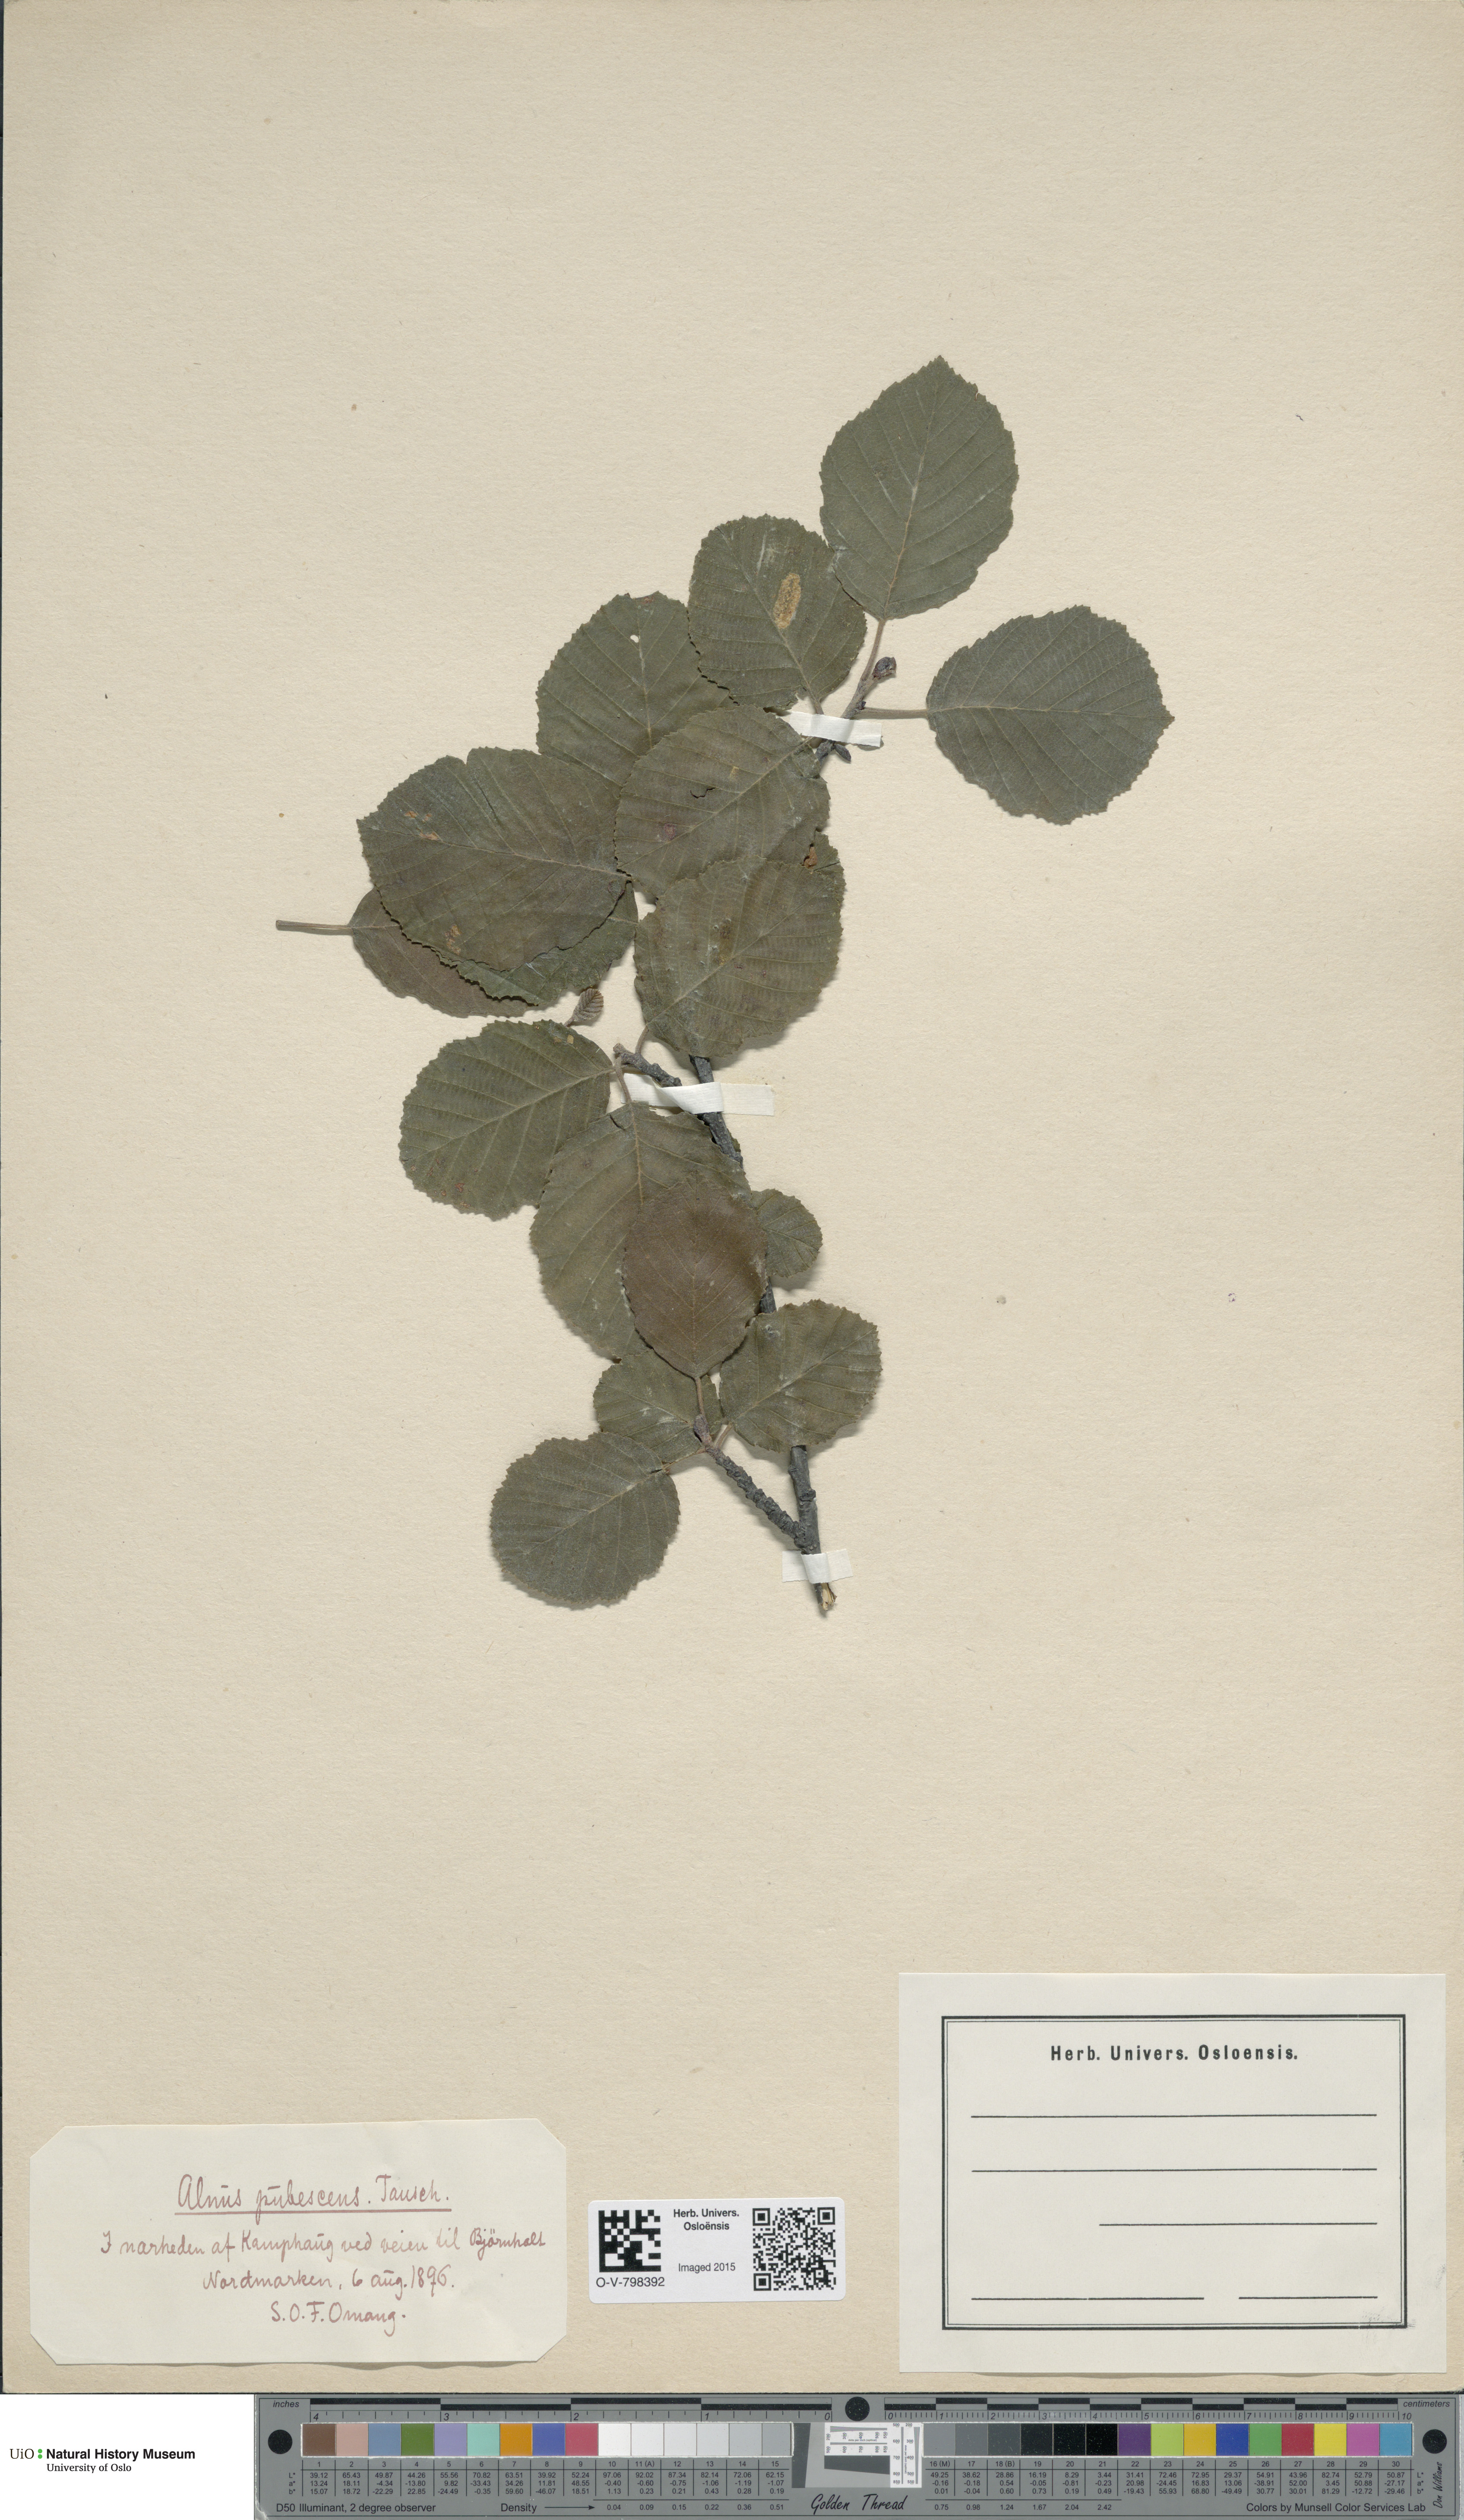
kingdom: Plantae
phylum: Tracheophyta
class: Magnoliopsida
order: Fagales
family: Betulaceae
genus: Alnus
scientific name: Alnus pubescens
